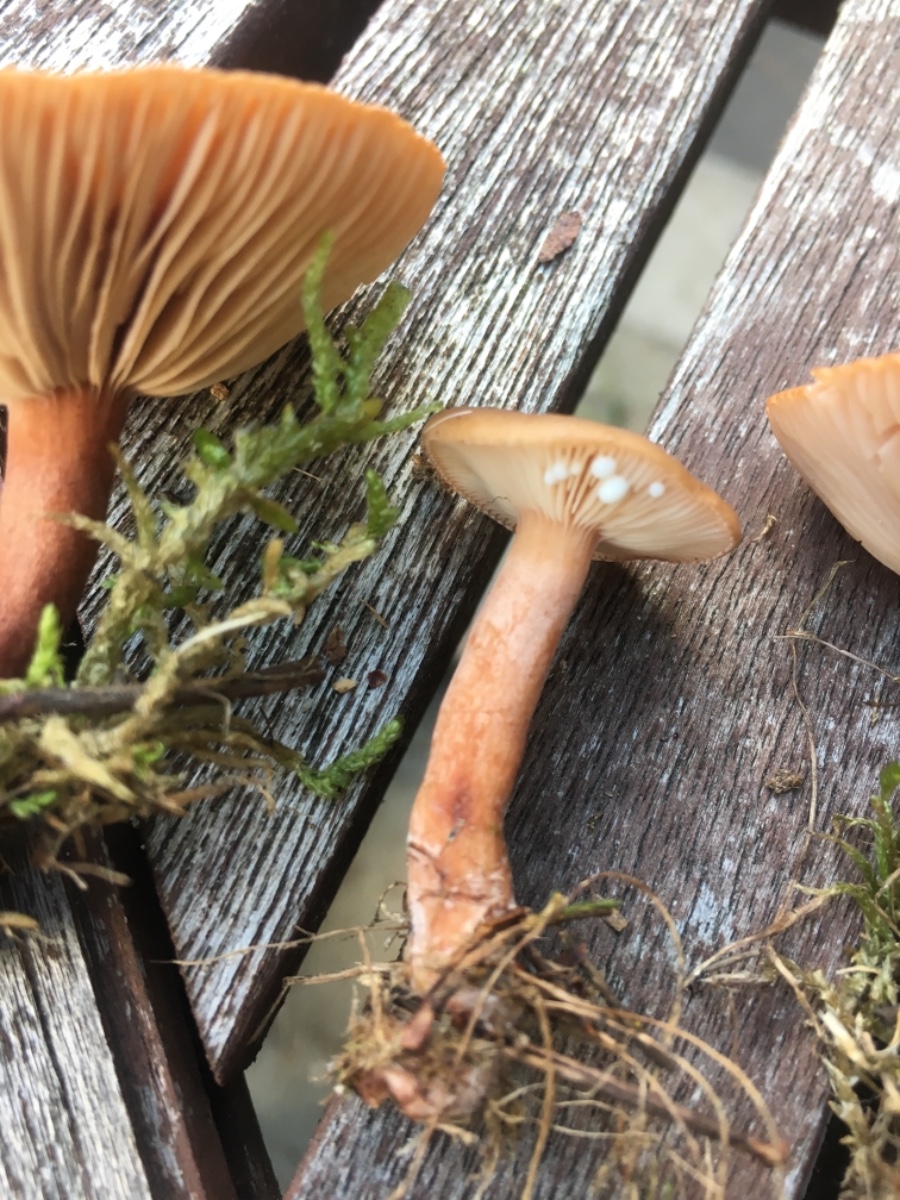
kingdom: Fungi
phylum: Basidiomycota
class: Agaricomycetes
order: Russulales
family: Russulaceae
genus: Lactarius
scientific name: Lactarius hepaticus
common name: leverbrun mælkehat
